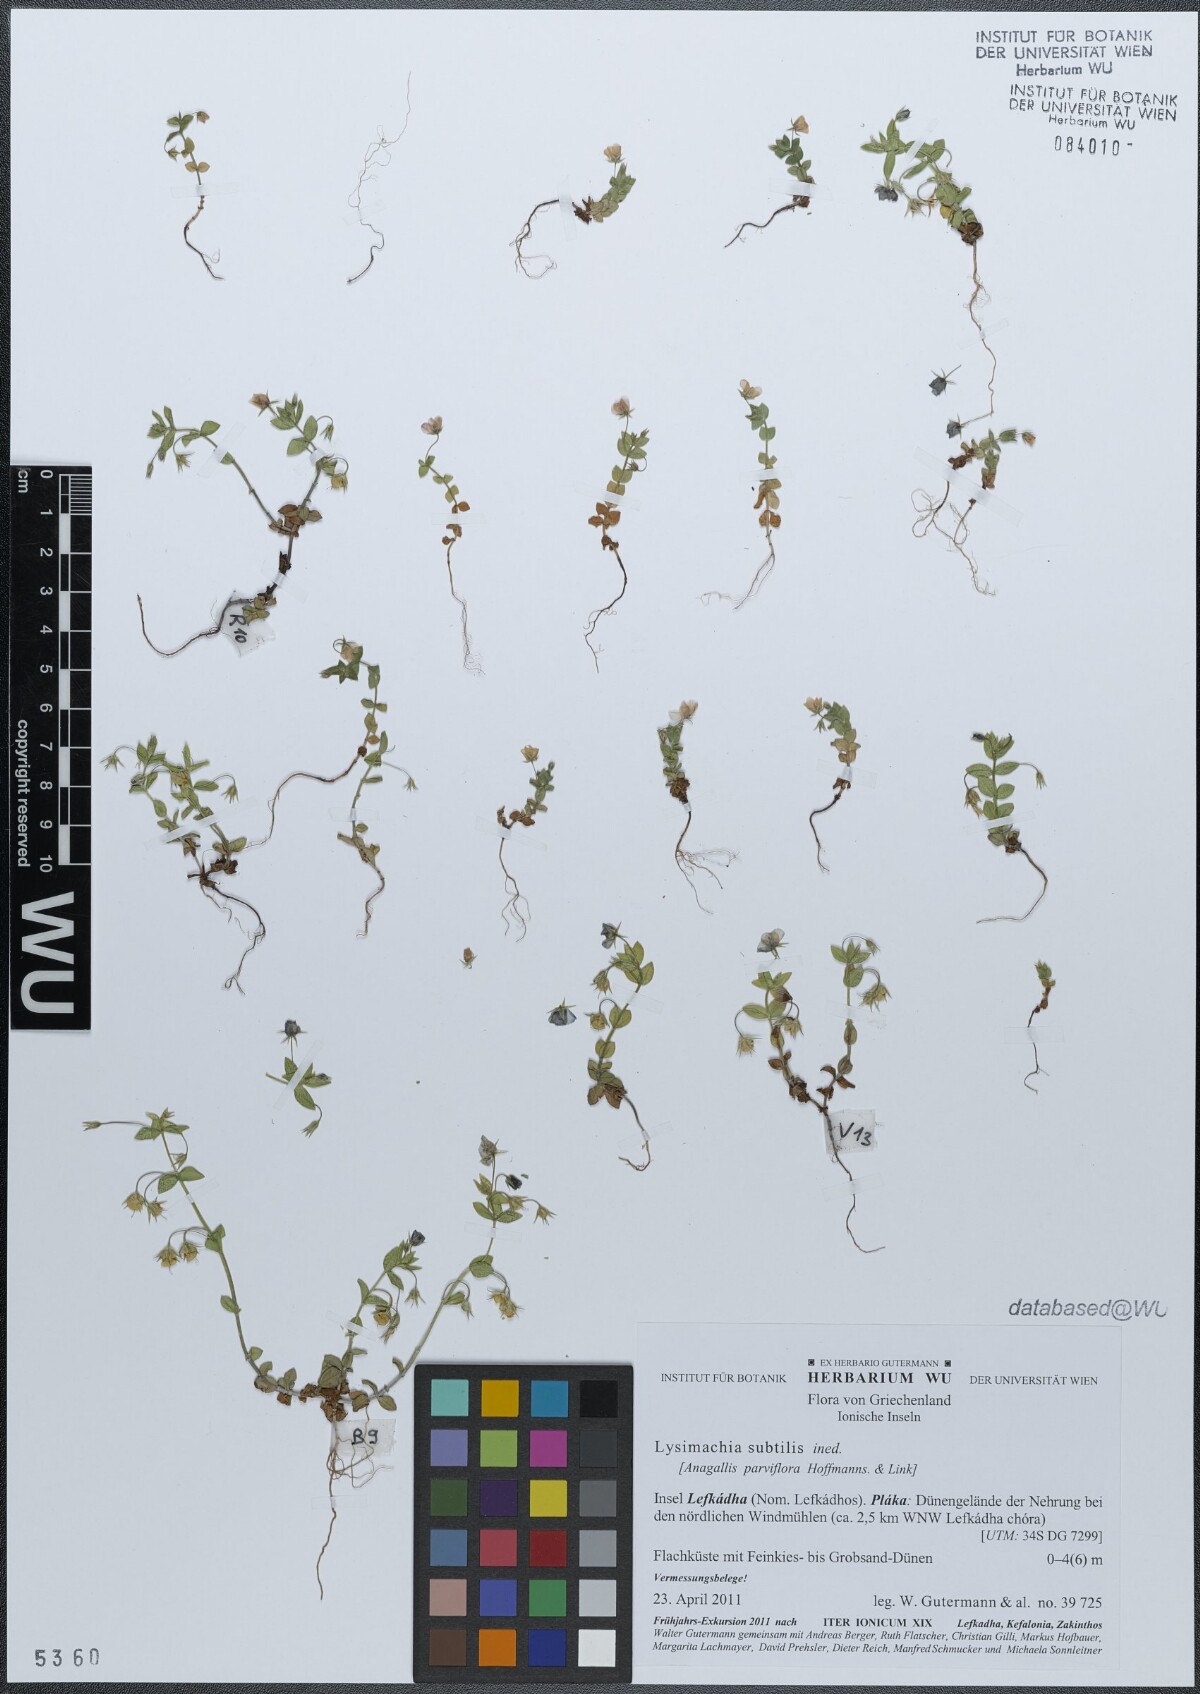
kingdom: Plantae
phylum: Tracheophyta
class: Magnoliopsida
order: Ericales
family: Primulaceae
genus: Lysimachia
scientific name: Lysimachia talaverae
